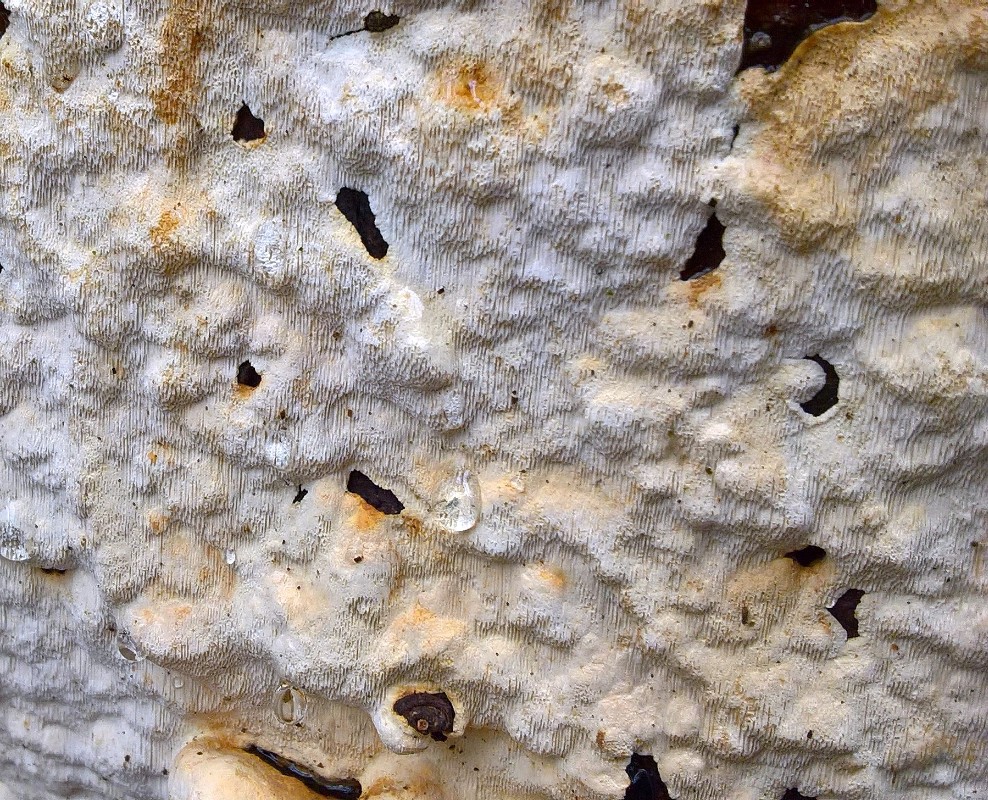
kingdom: Fungi
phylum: Basidiomycota
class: Agaricomycetes
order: Polyporales
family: Fomitopsidaceae
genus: Neoantrodia
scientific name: Neoantrodia serialis
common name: række-sejporesvamp
